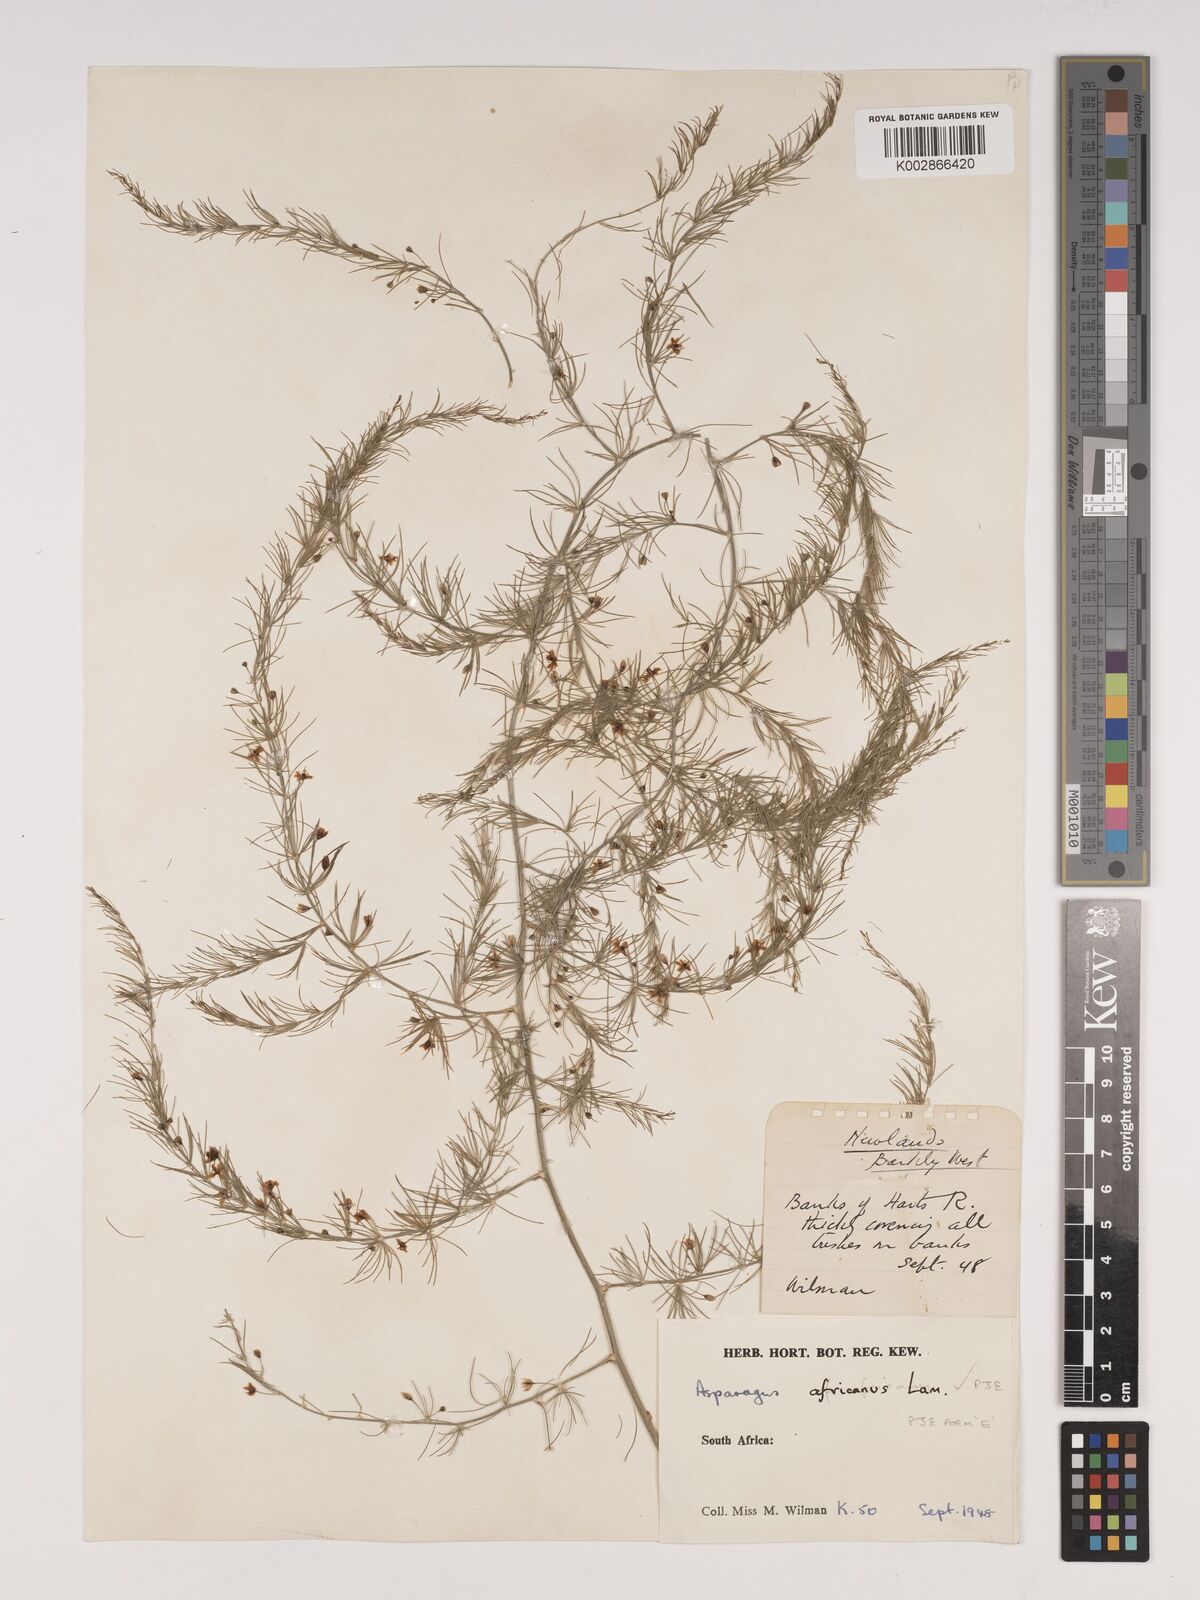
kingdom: Plantae
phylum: Tracheophyta
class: Liliopsida
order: Asparagales
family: Asparagaceae
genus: Asparagus
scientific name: Asparagus africanus
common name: Asparagus-fern
